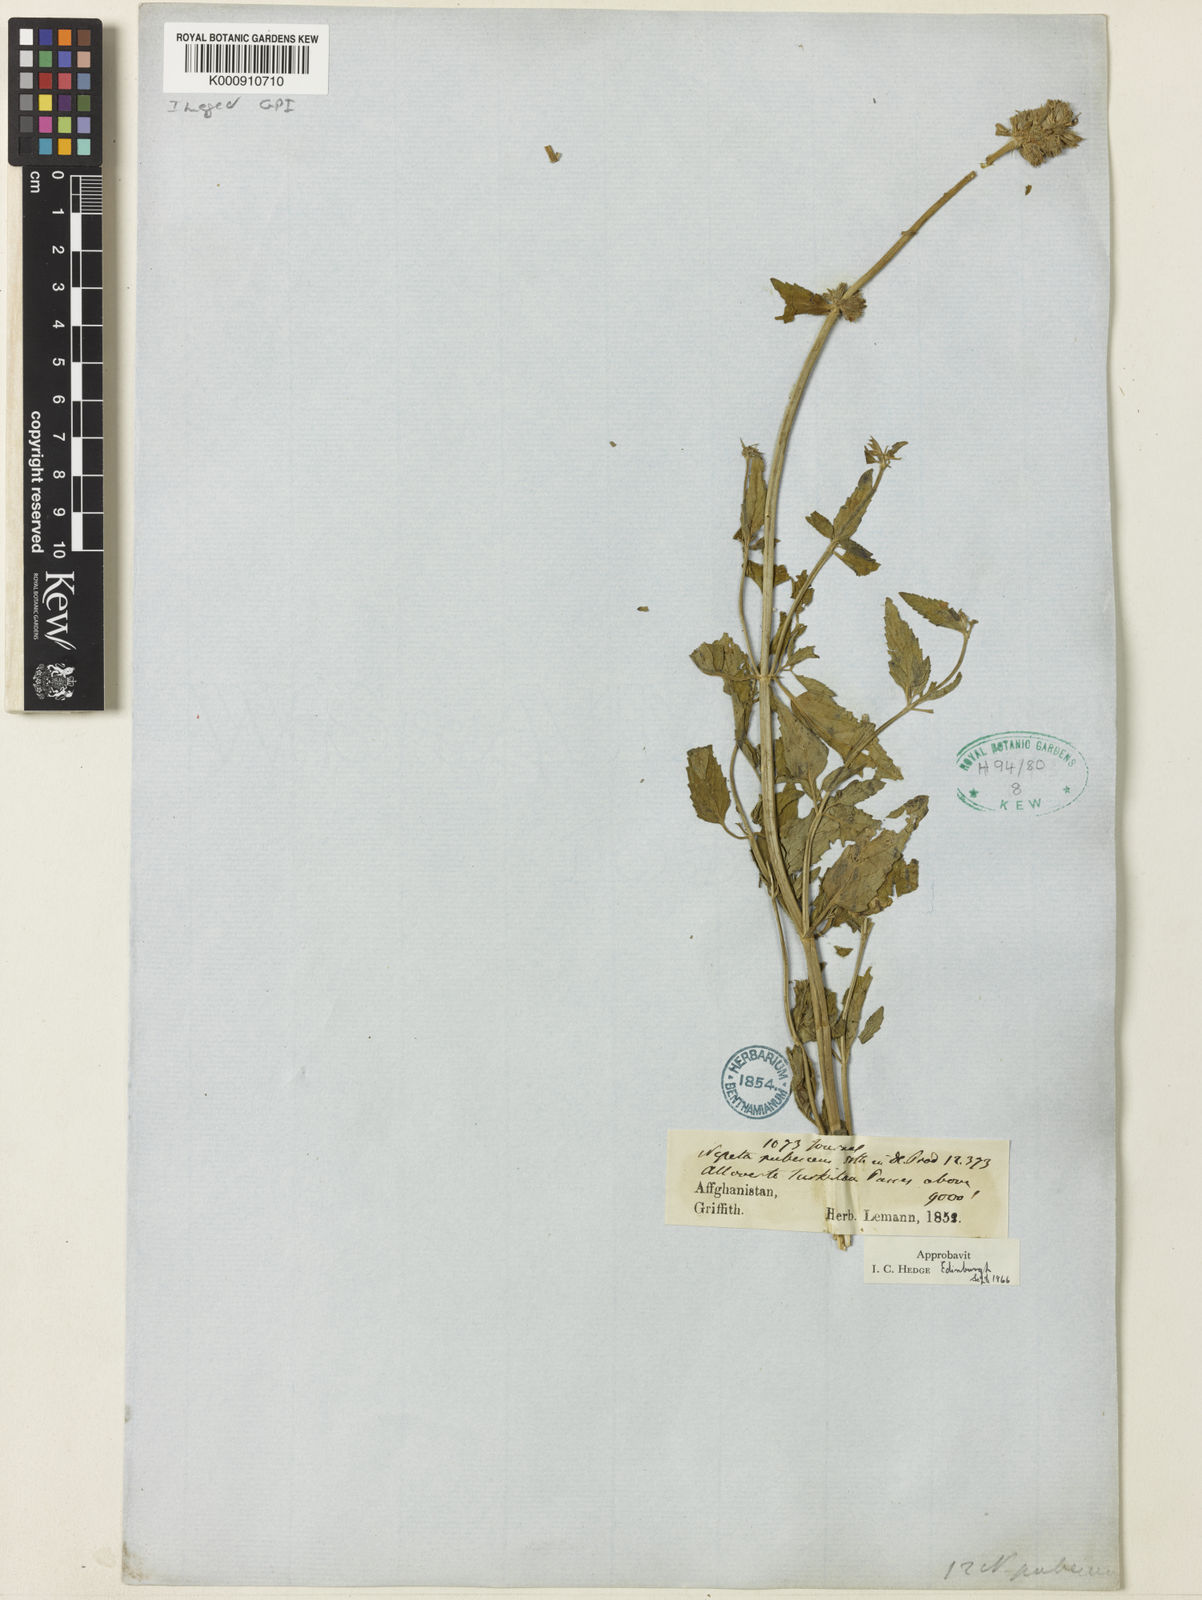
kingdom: Plantae
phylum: Tracheophyta
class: Magnoliopsida
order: Lamiales
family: Lamiaceae
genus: Nepeta
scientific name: Nepeta pubescens
